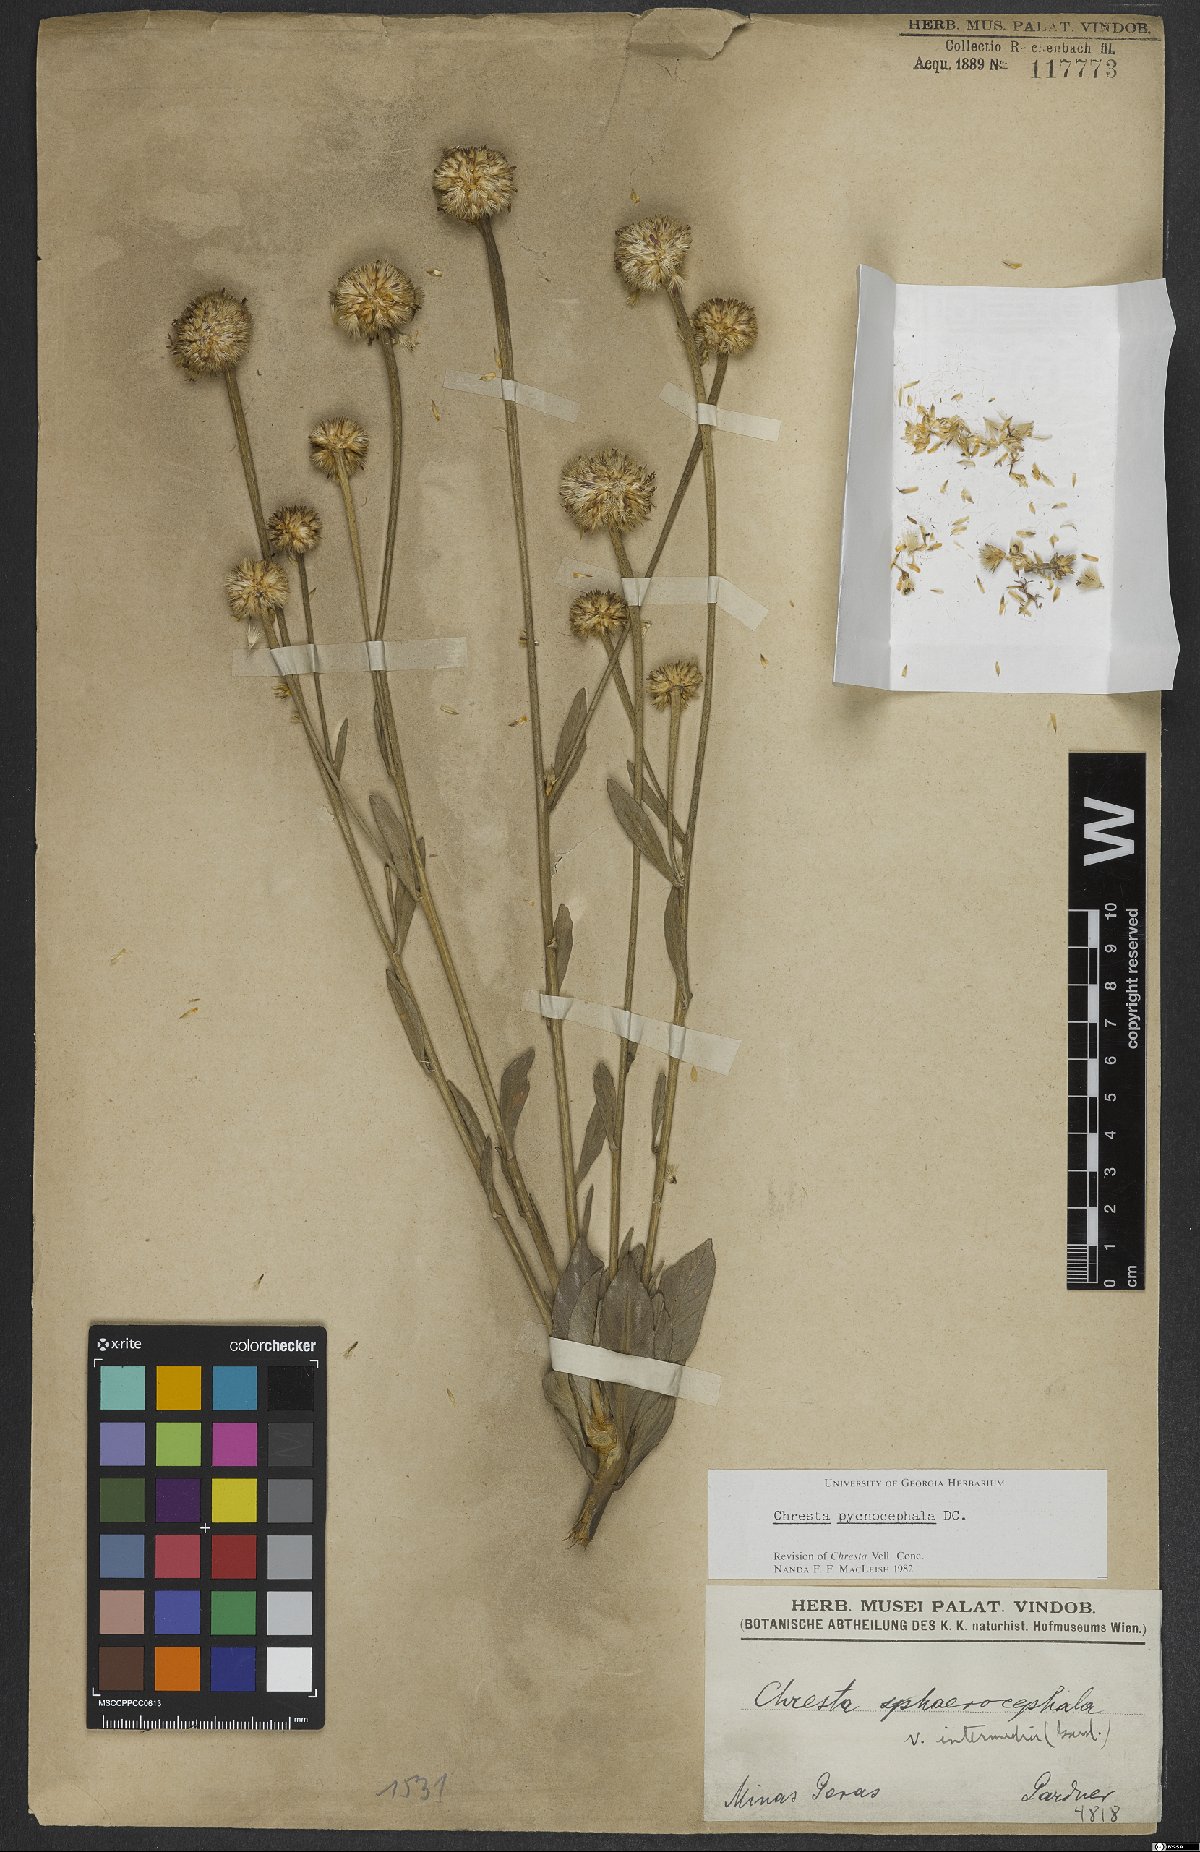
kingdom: Plantae
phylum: Tracheophyta
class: Magnoliopsida
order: Asterales
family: Asteraceae
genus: Chresta
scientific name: Chresta pycnocephala
